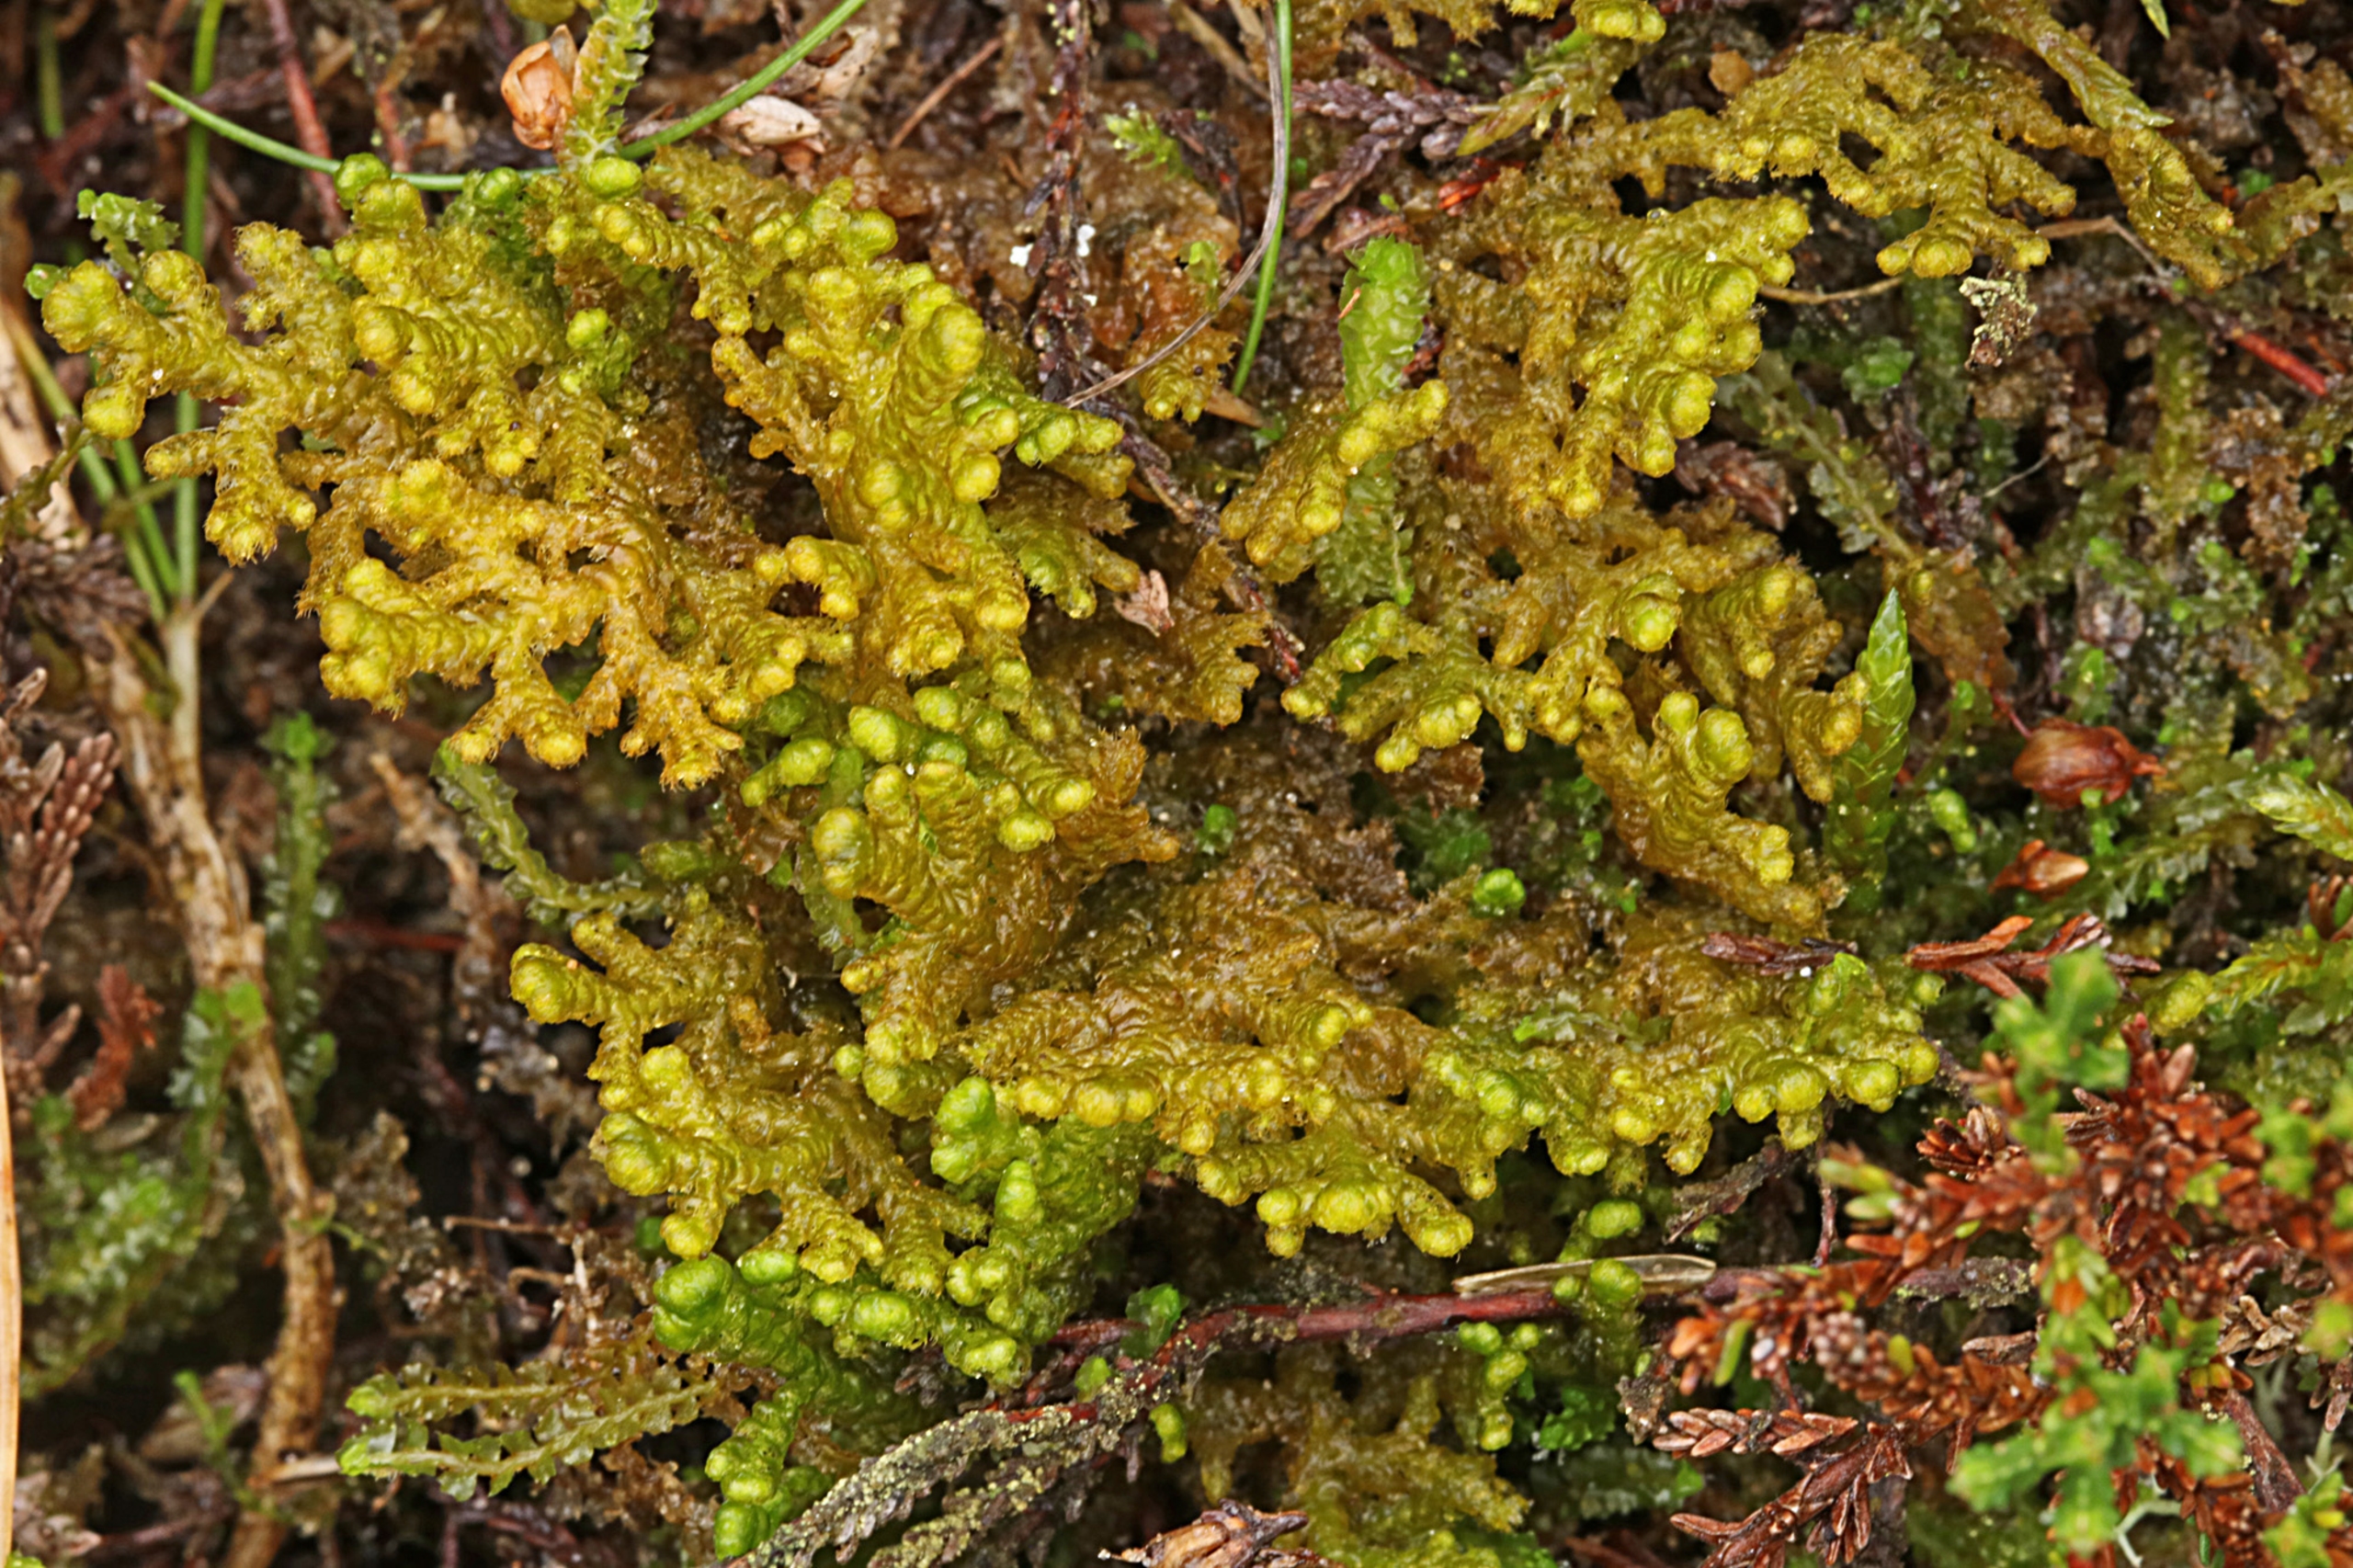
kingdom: Plantae
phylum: Marchantiophyta
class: Jungermanniopsida
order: Ptilidiales
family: Ptilidiaceae
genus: Ptilidium
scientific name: Ptilidium ciliare
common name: Almindelig frynsemos
